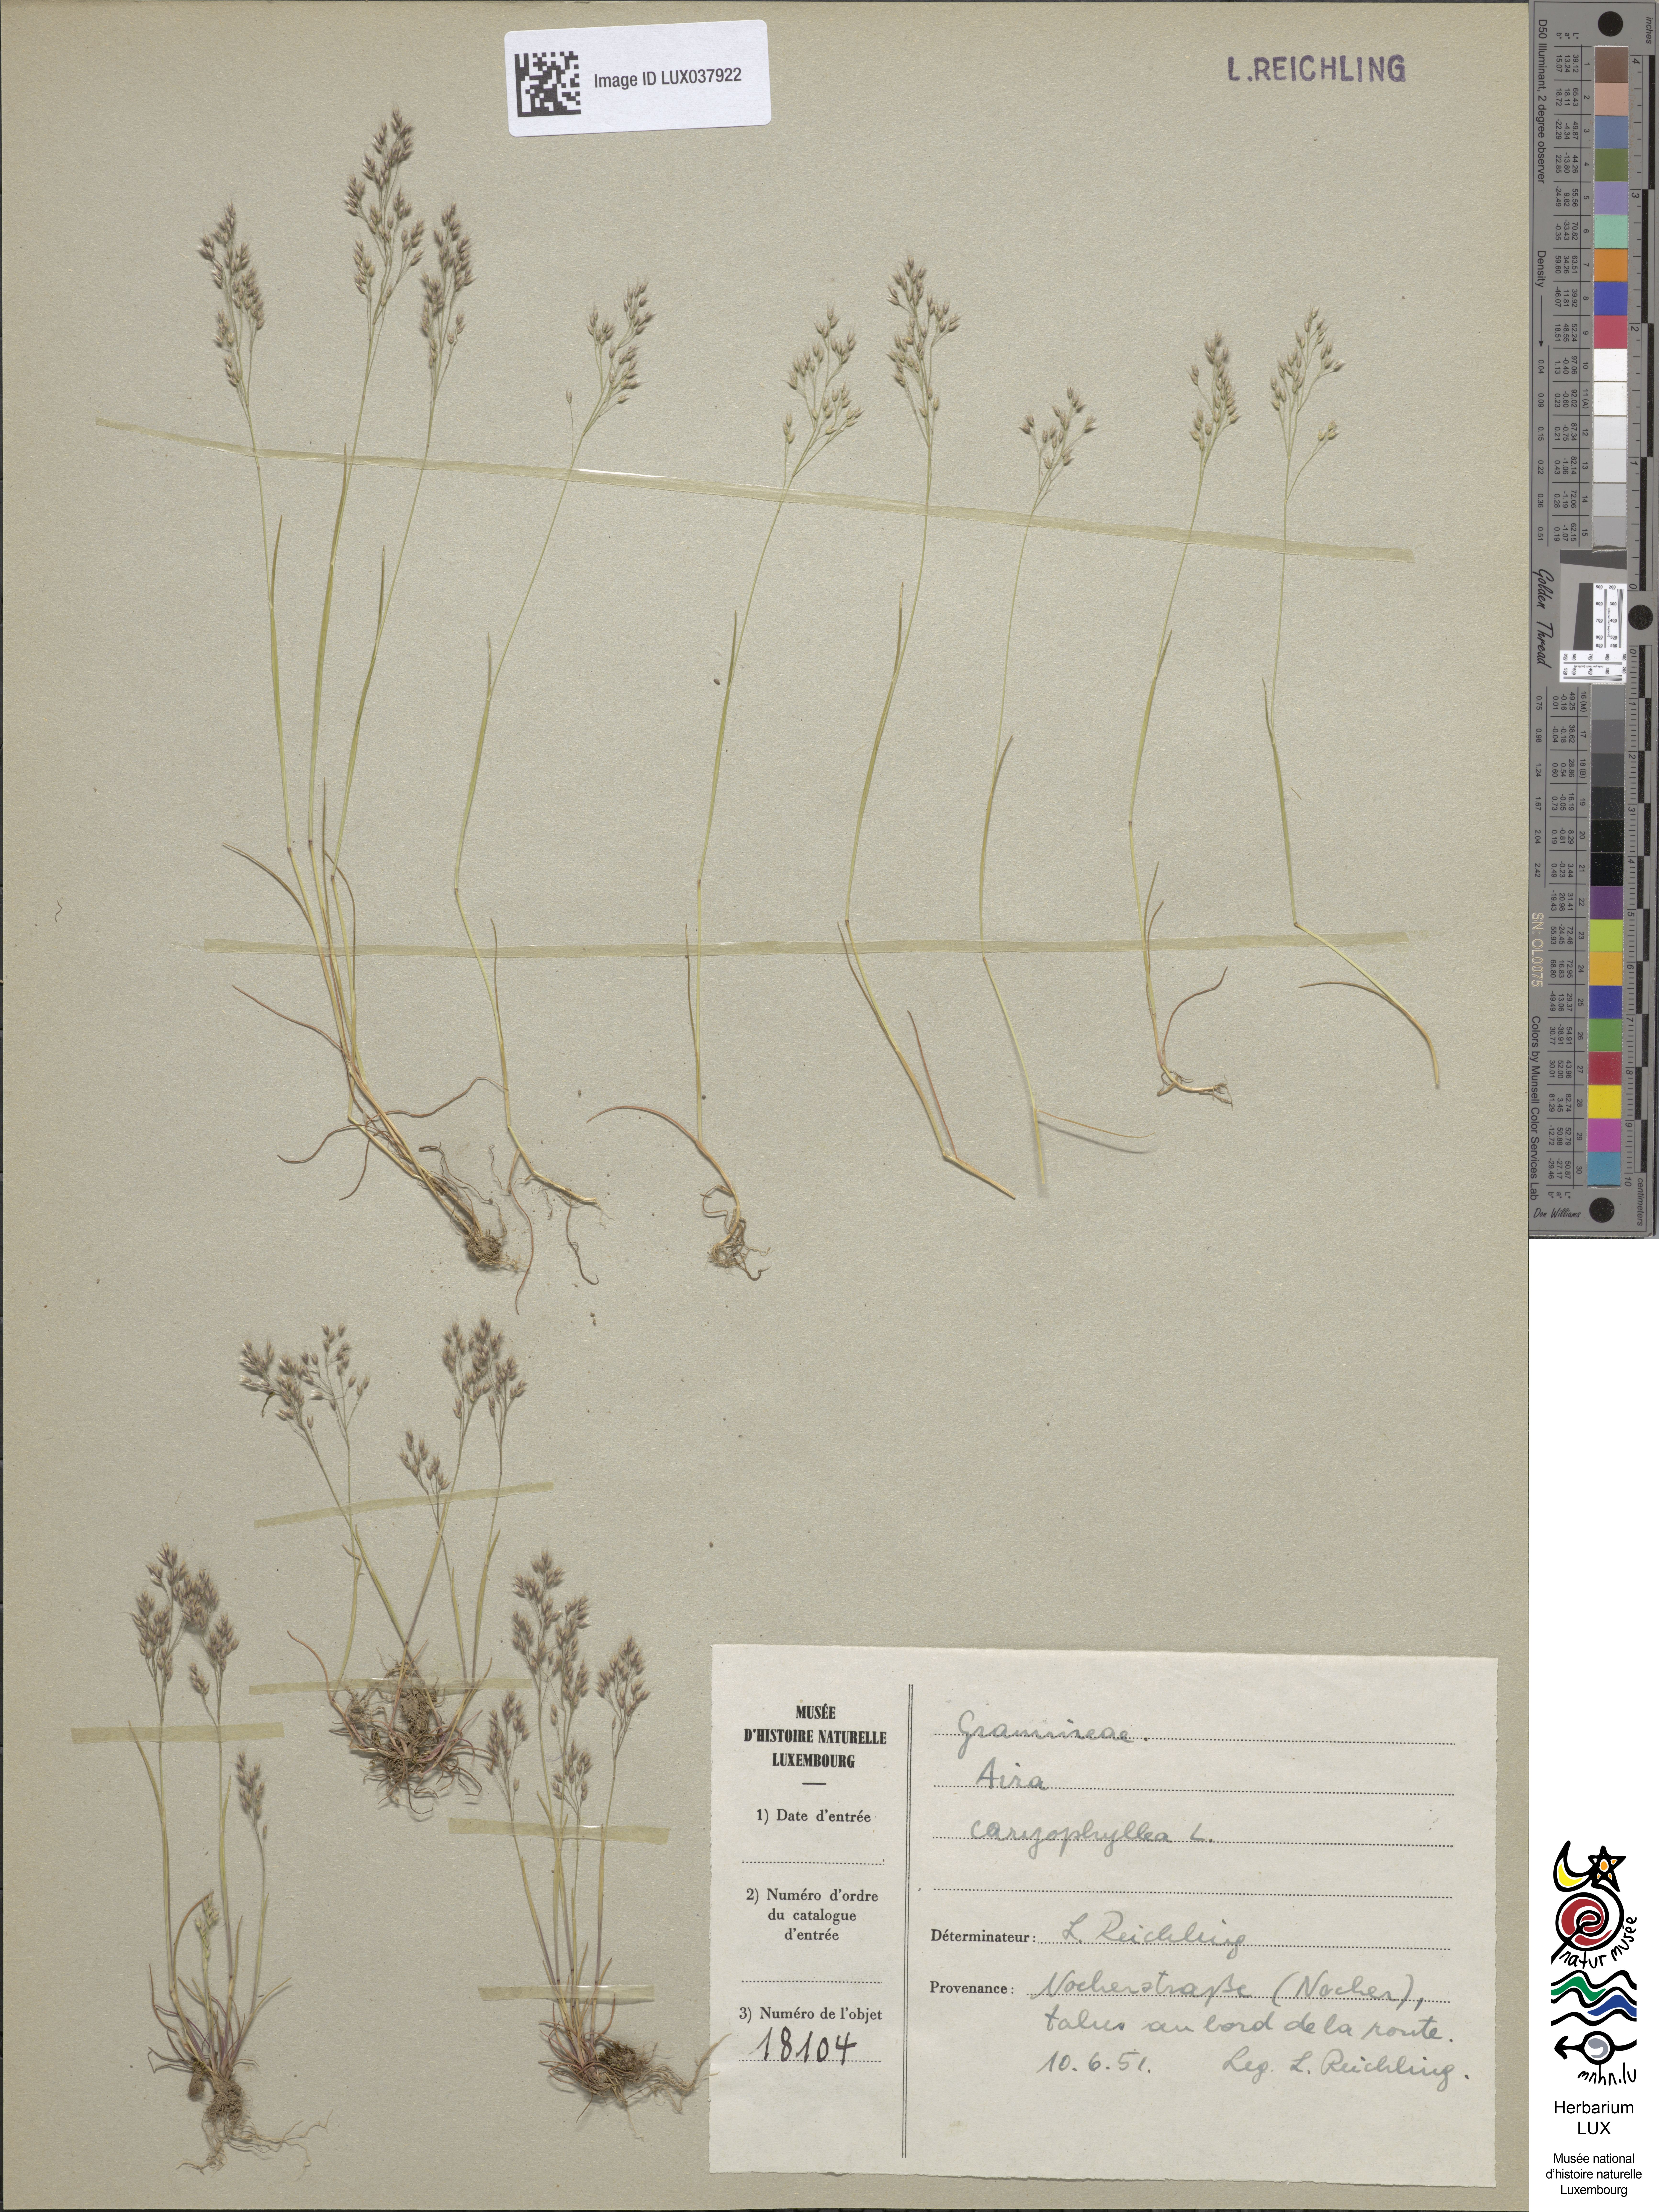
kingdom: Plantae
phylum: Tracheophyta
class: Liliopsida
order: Poales
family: Poaceae
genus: Aira
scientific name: Aira caryophyllea
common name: Silver hairgrass
